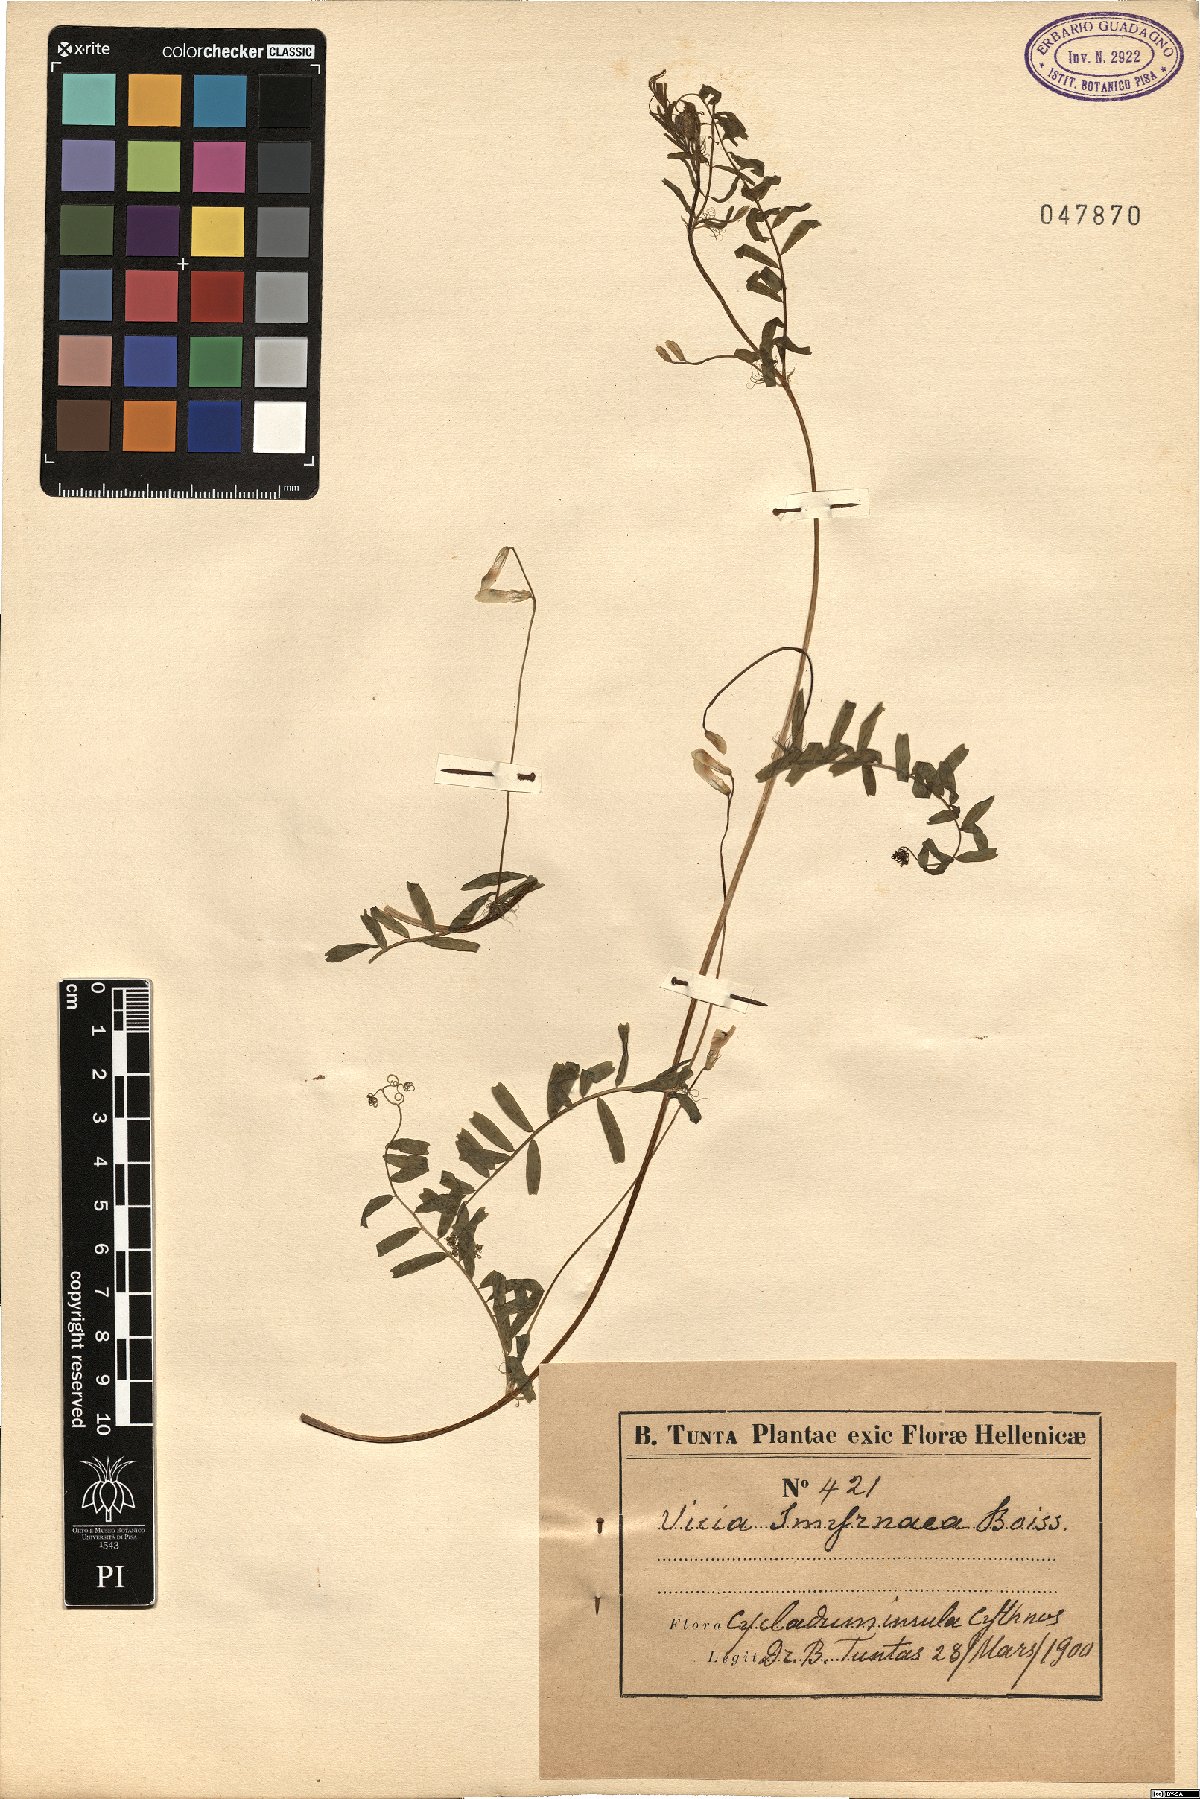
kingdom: Plantae
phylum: Tracheophyta
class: Magnoliopsida
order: Fabales
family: Fabaceae
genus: Vicia
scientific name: Vicia articulata
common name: Monantha vetch
